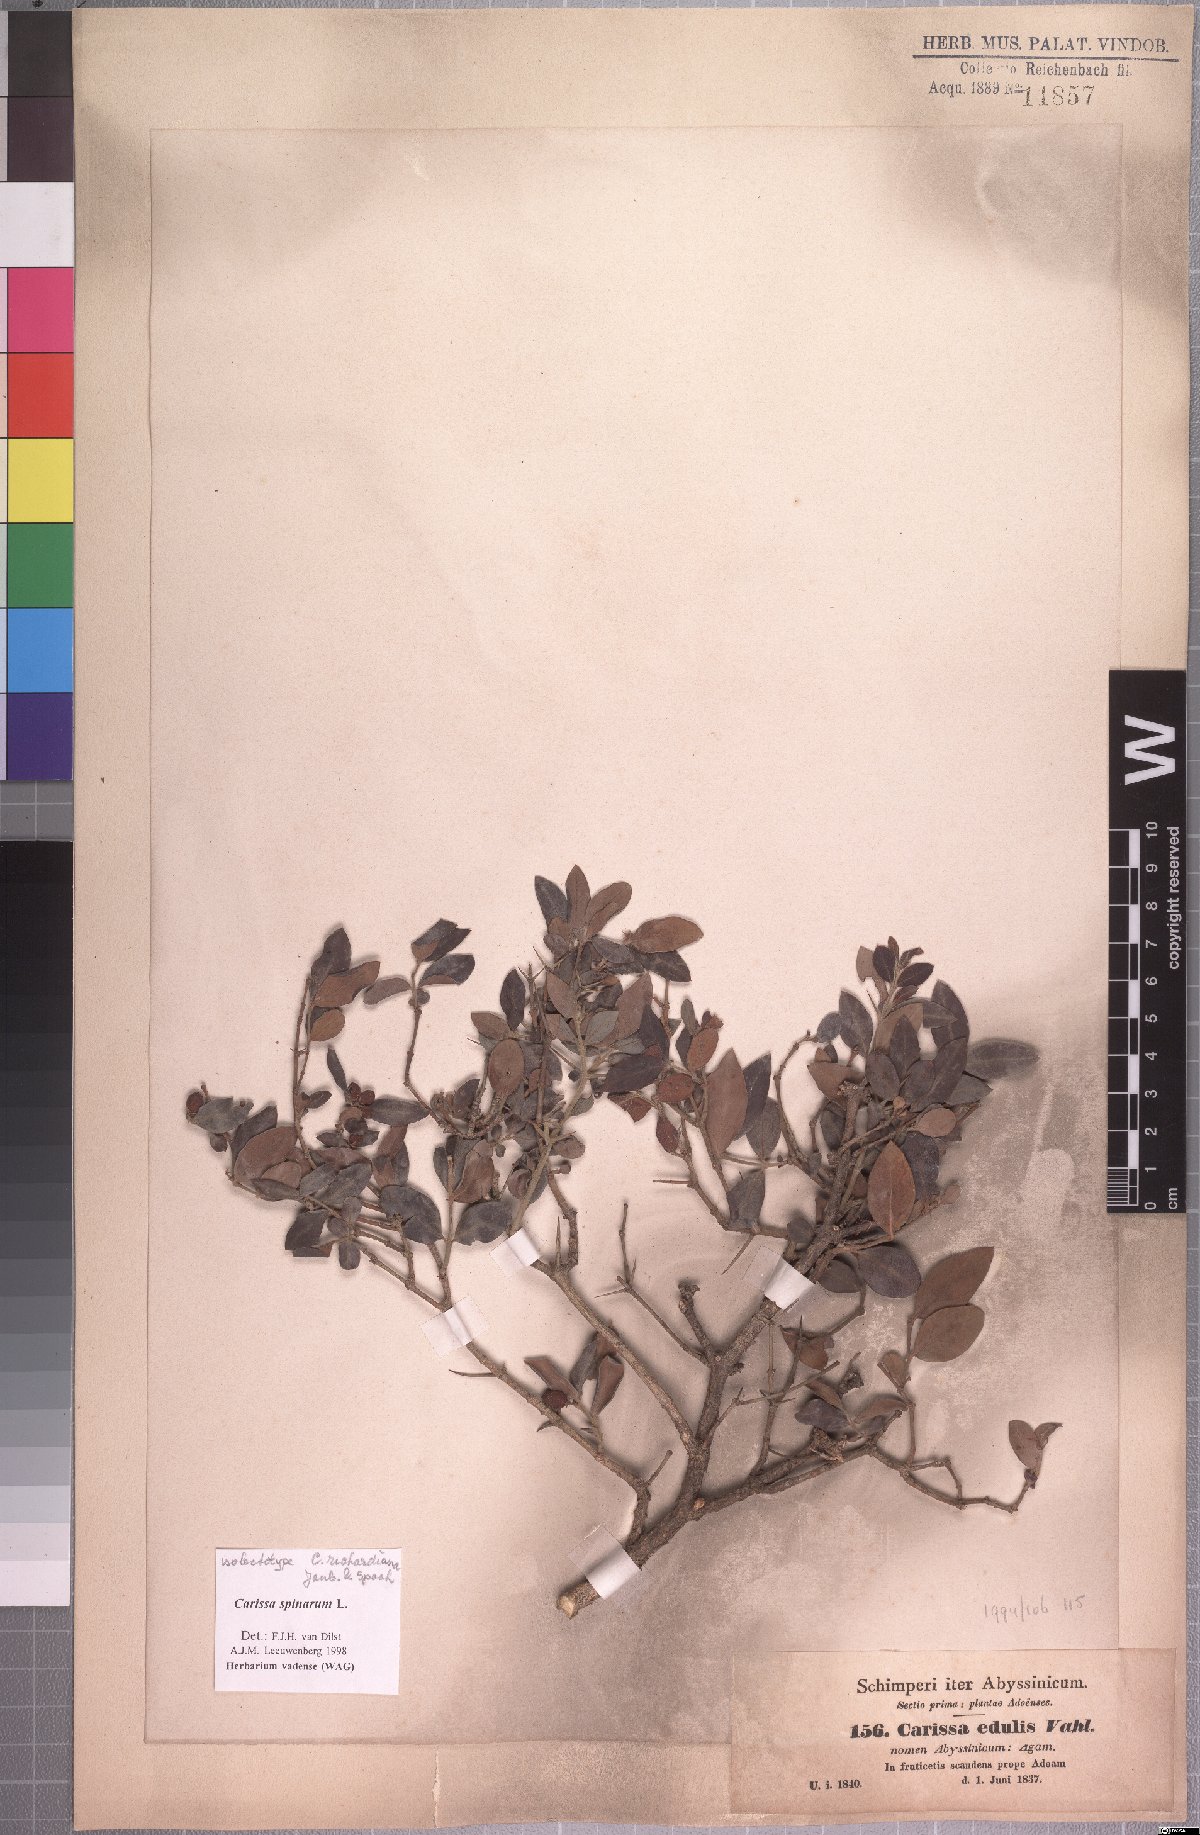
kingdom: Plantae
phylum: Tracheophyta
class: Magnoliopsida
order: Gentianales
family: Apocynaceae
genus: Carissa
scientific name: Carissa spinarum
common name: Egyptian carissa
